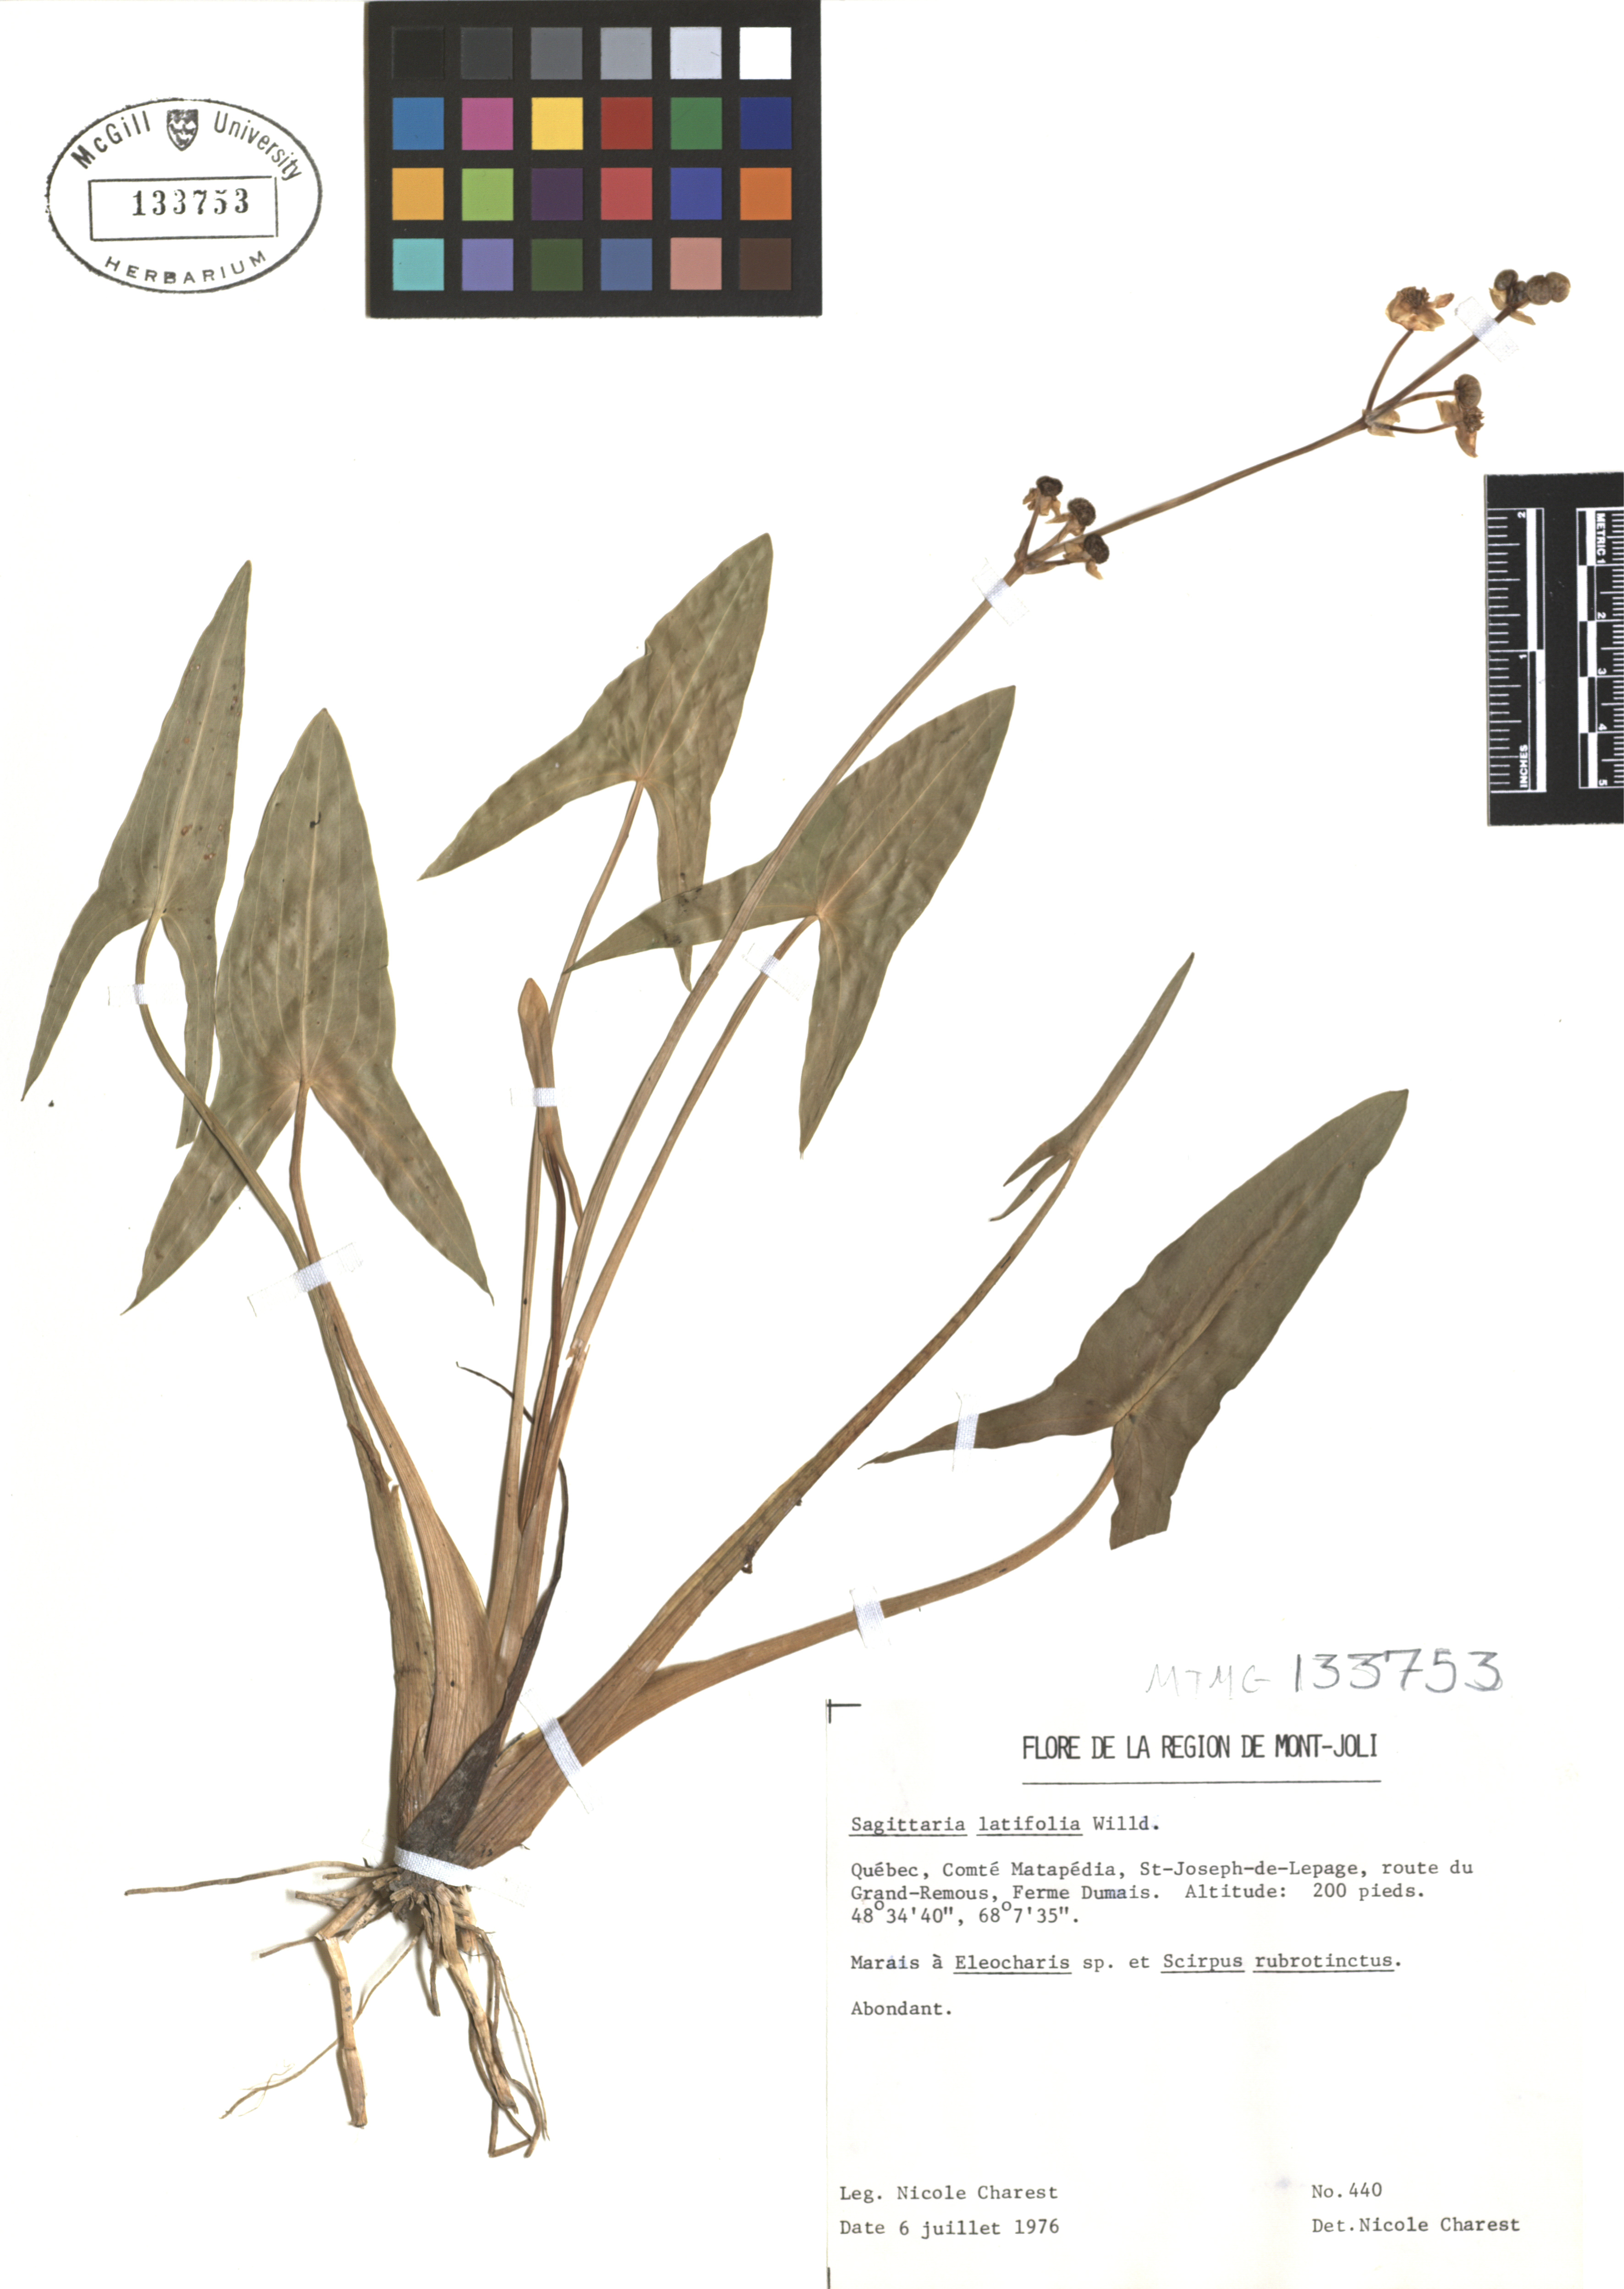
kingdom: Plantae
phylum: Tracheophyta
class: Liliopsida
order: Alismatales
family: Alismataceae
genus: Sagittaria
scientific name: Sagittaria latifolia
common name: Duck-potato
